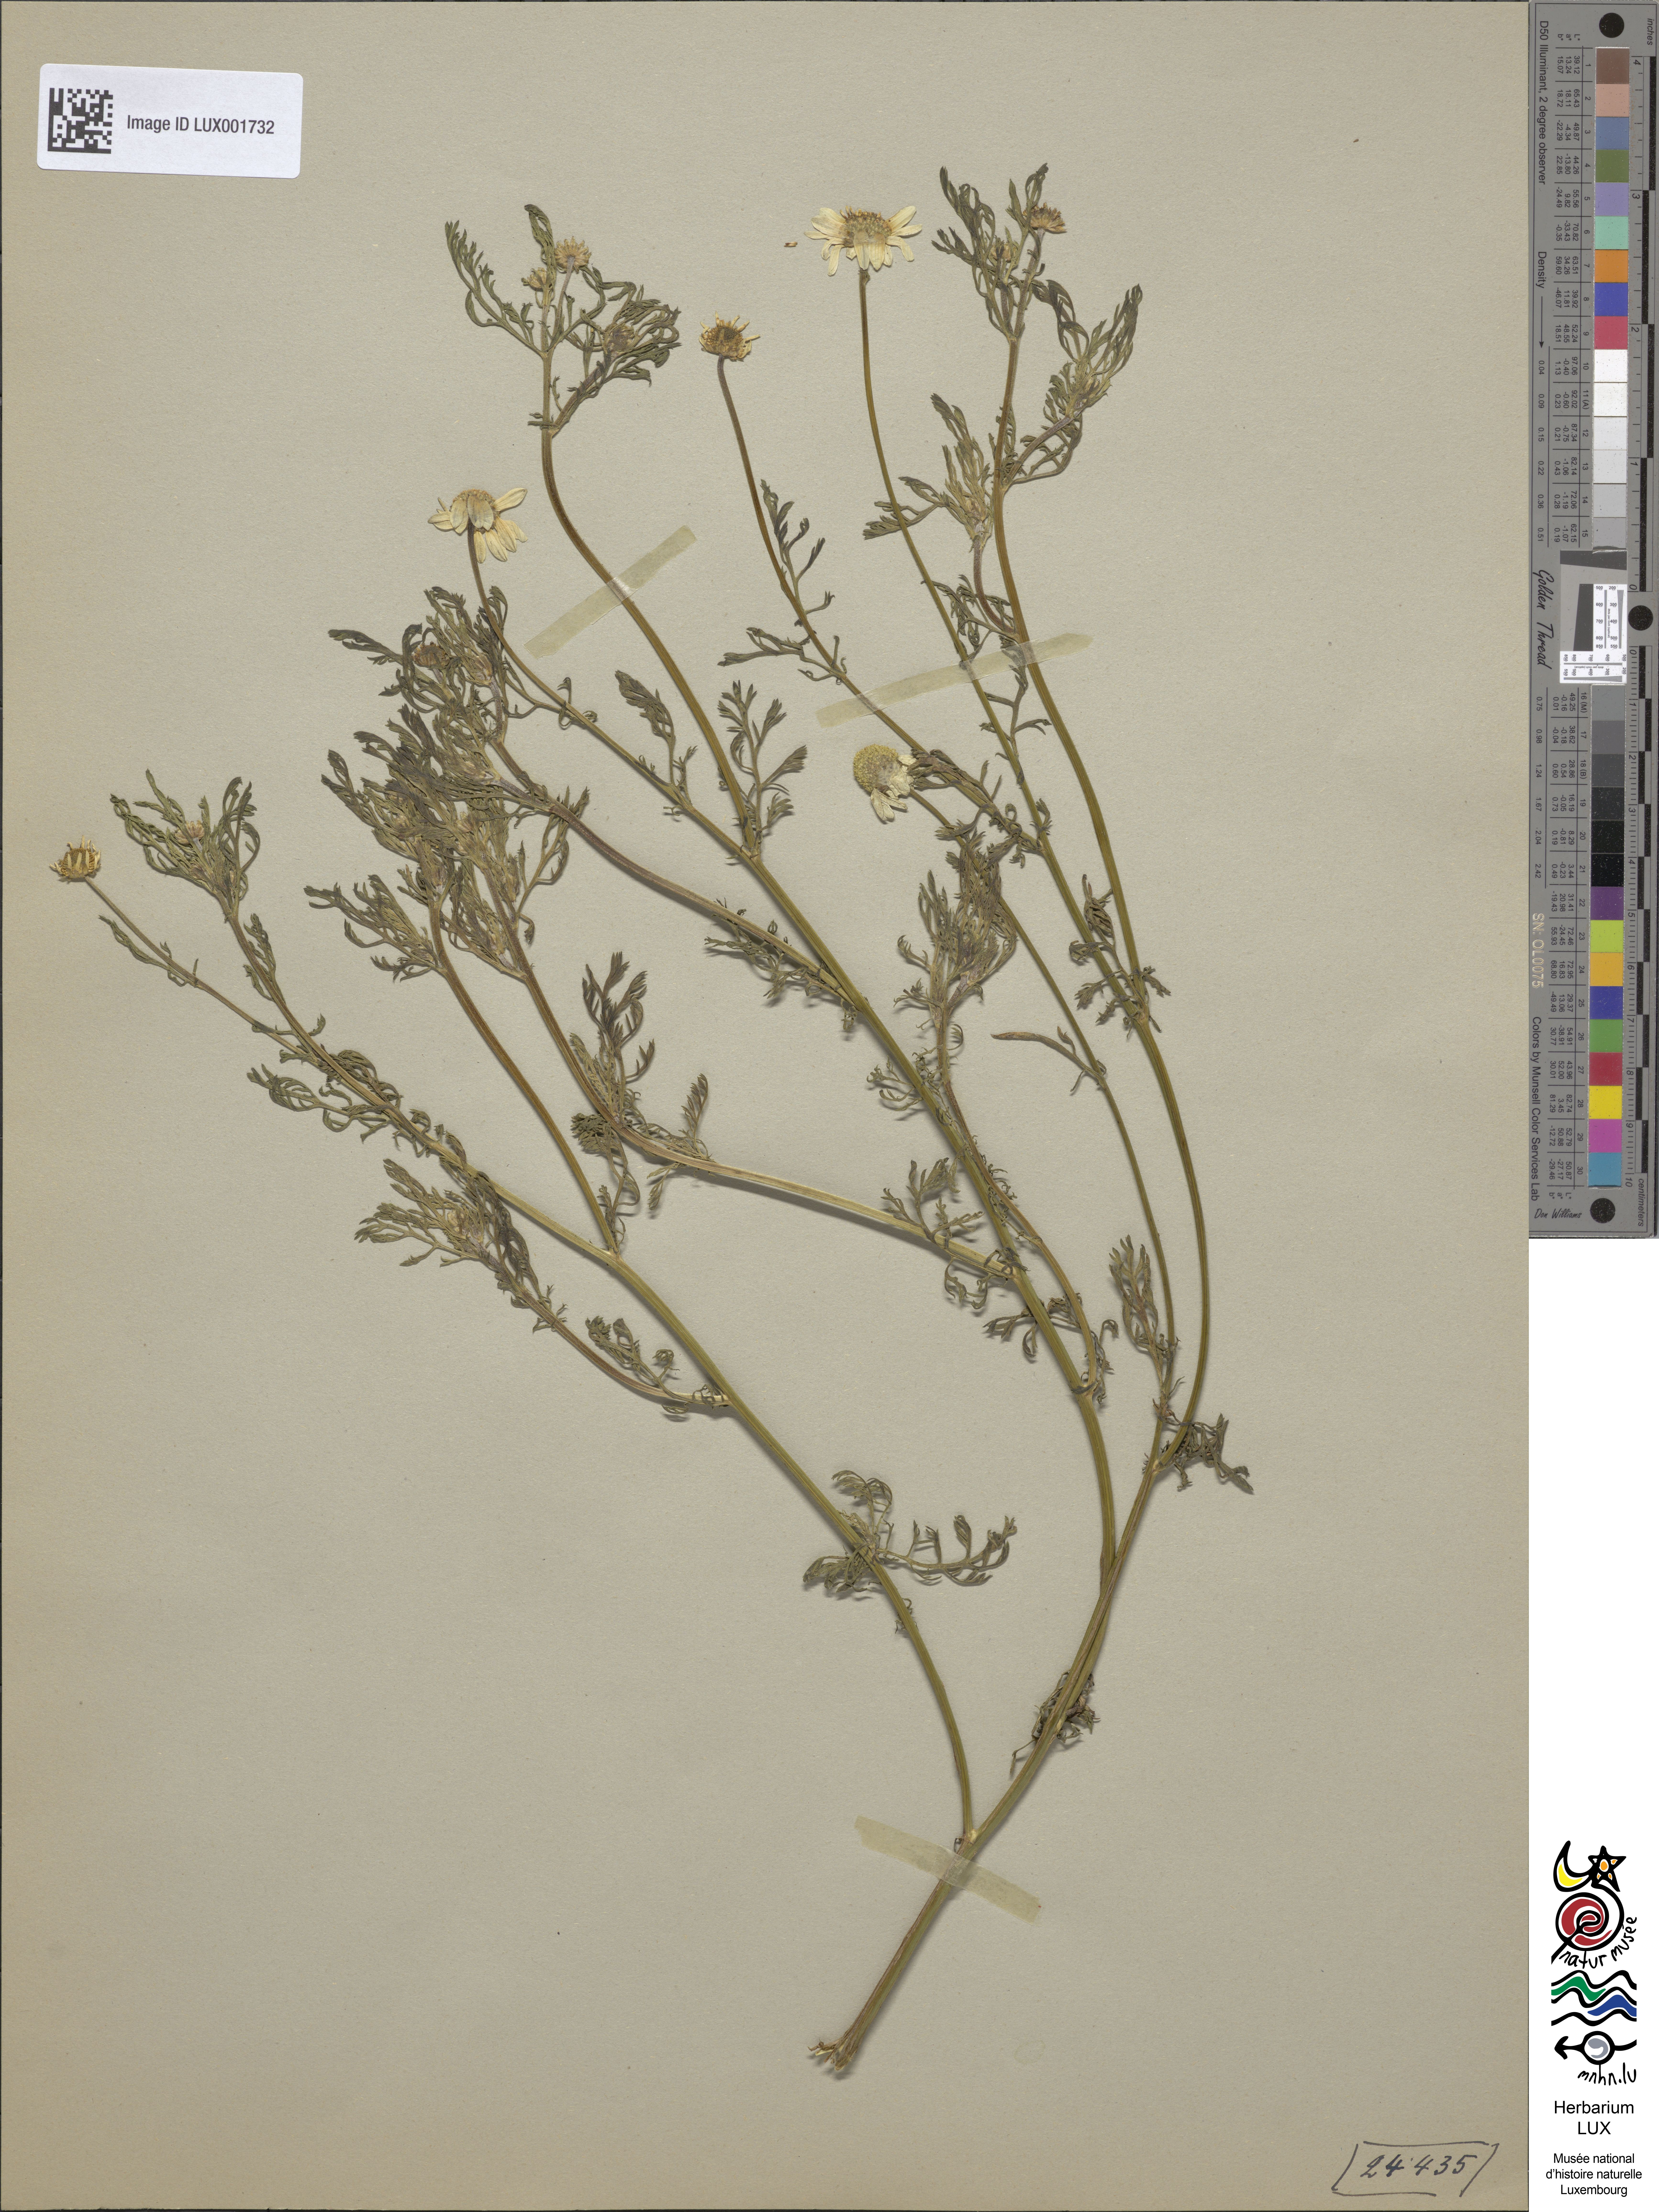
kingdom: Plantae
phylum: Tracheophyta
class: Magnoliopsida
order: Asterales
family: Asteraceae
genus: Anthemis
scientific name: Anthemis cotula
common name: Stinking chamomile
